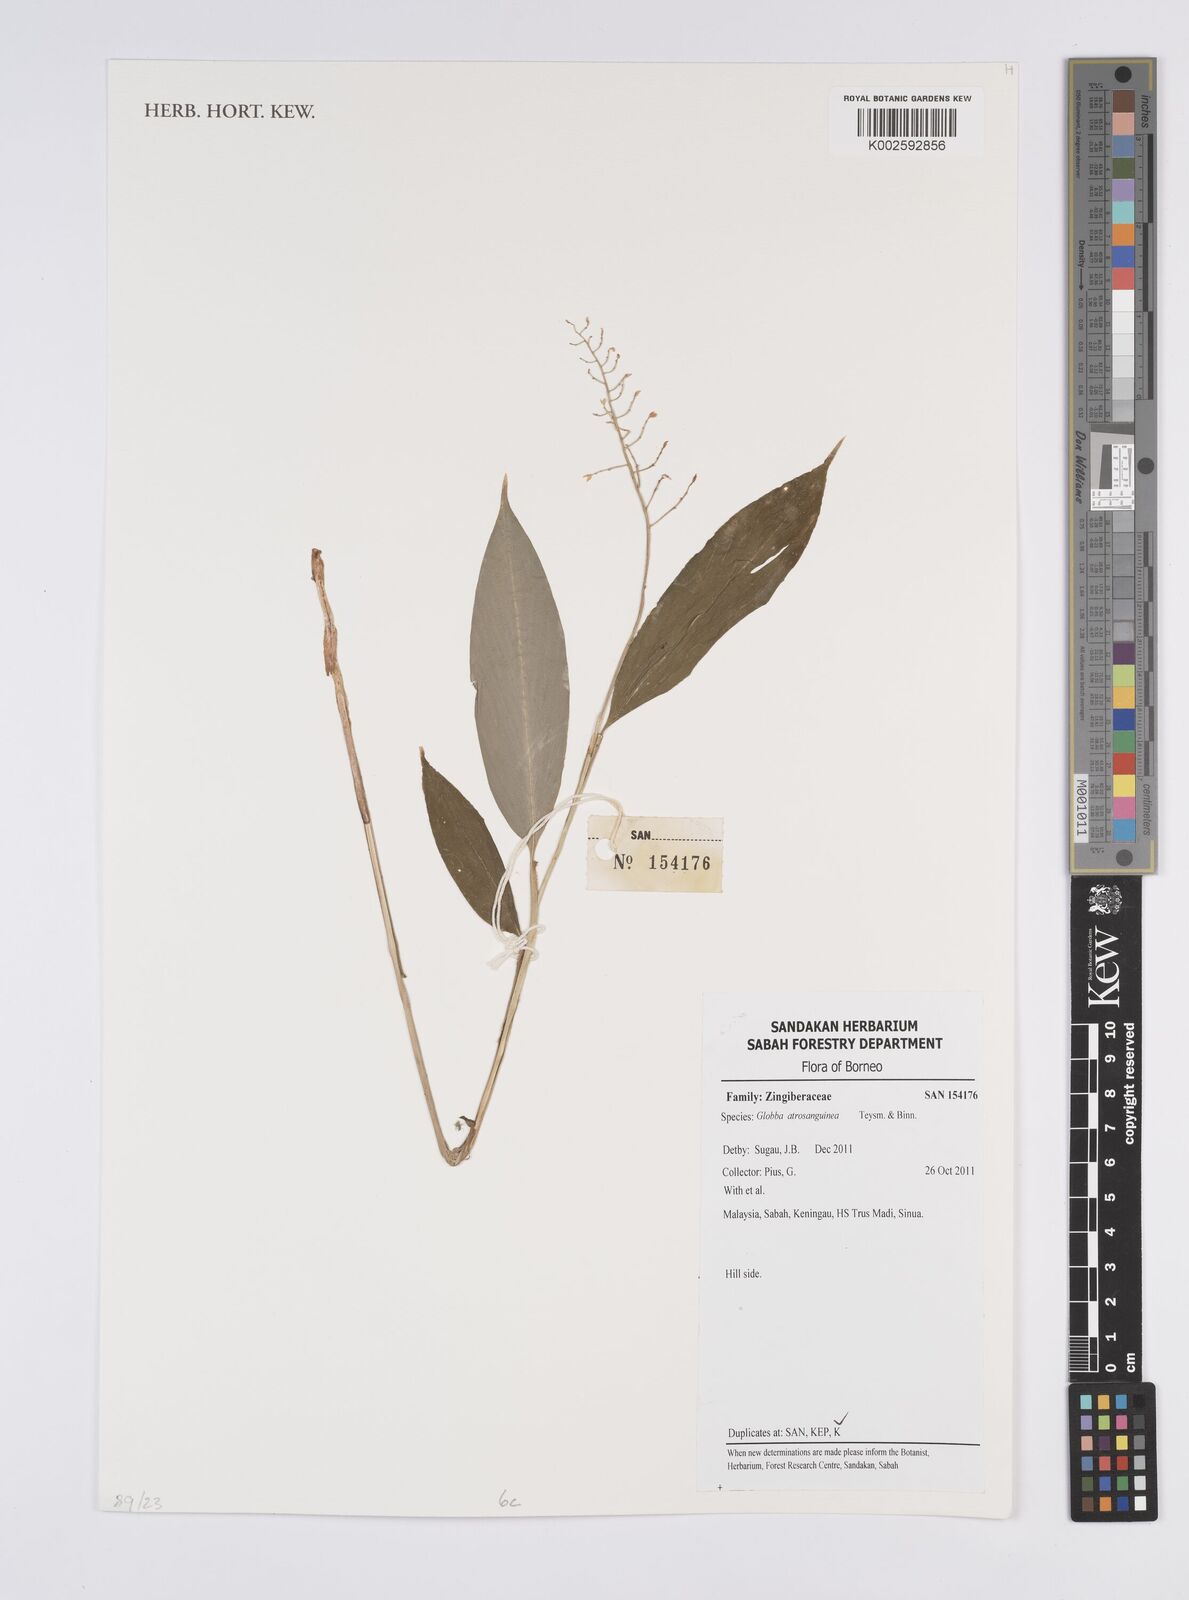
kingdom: Plantae
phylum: Tracheophyta
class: Liliopsida
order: Zingiberales
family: Zingiberaceae
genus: Globba
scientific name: Globba atrosanguinea
